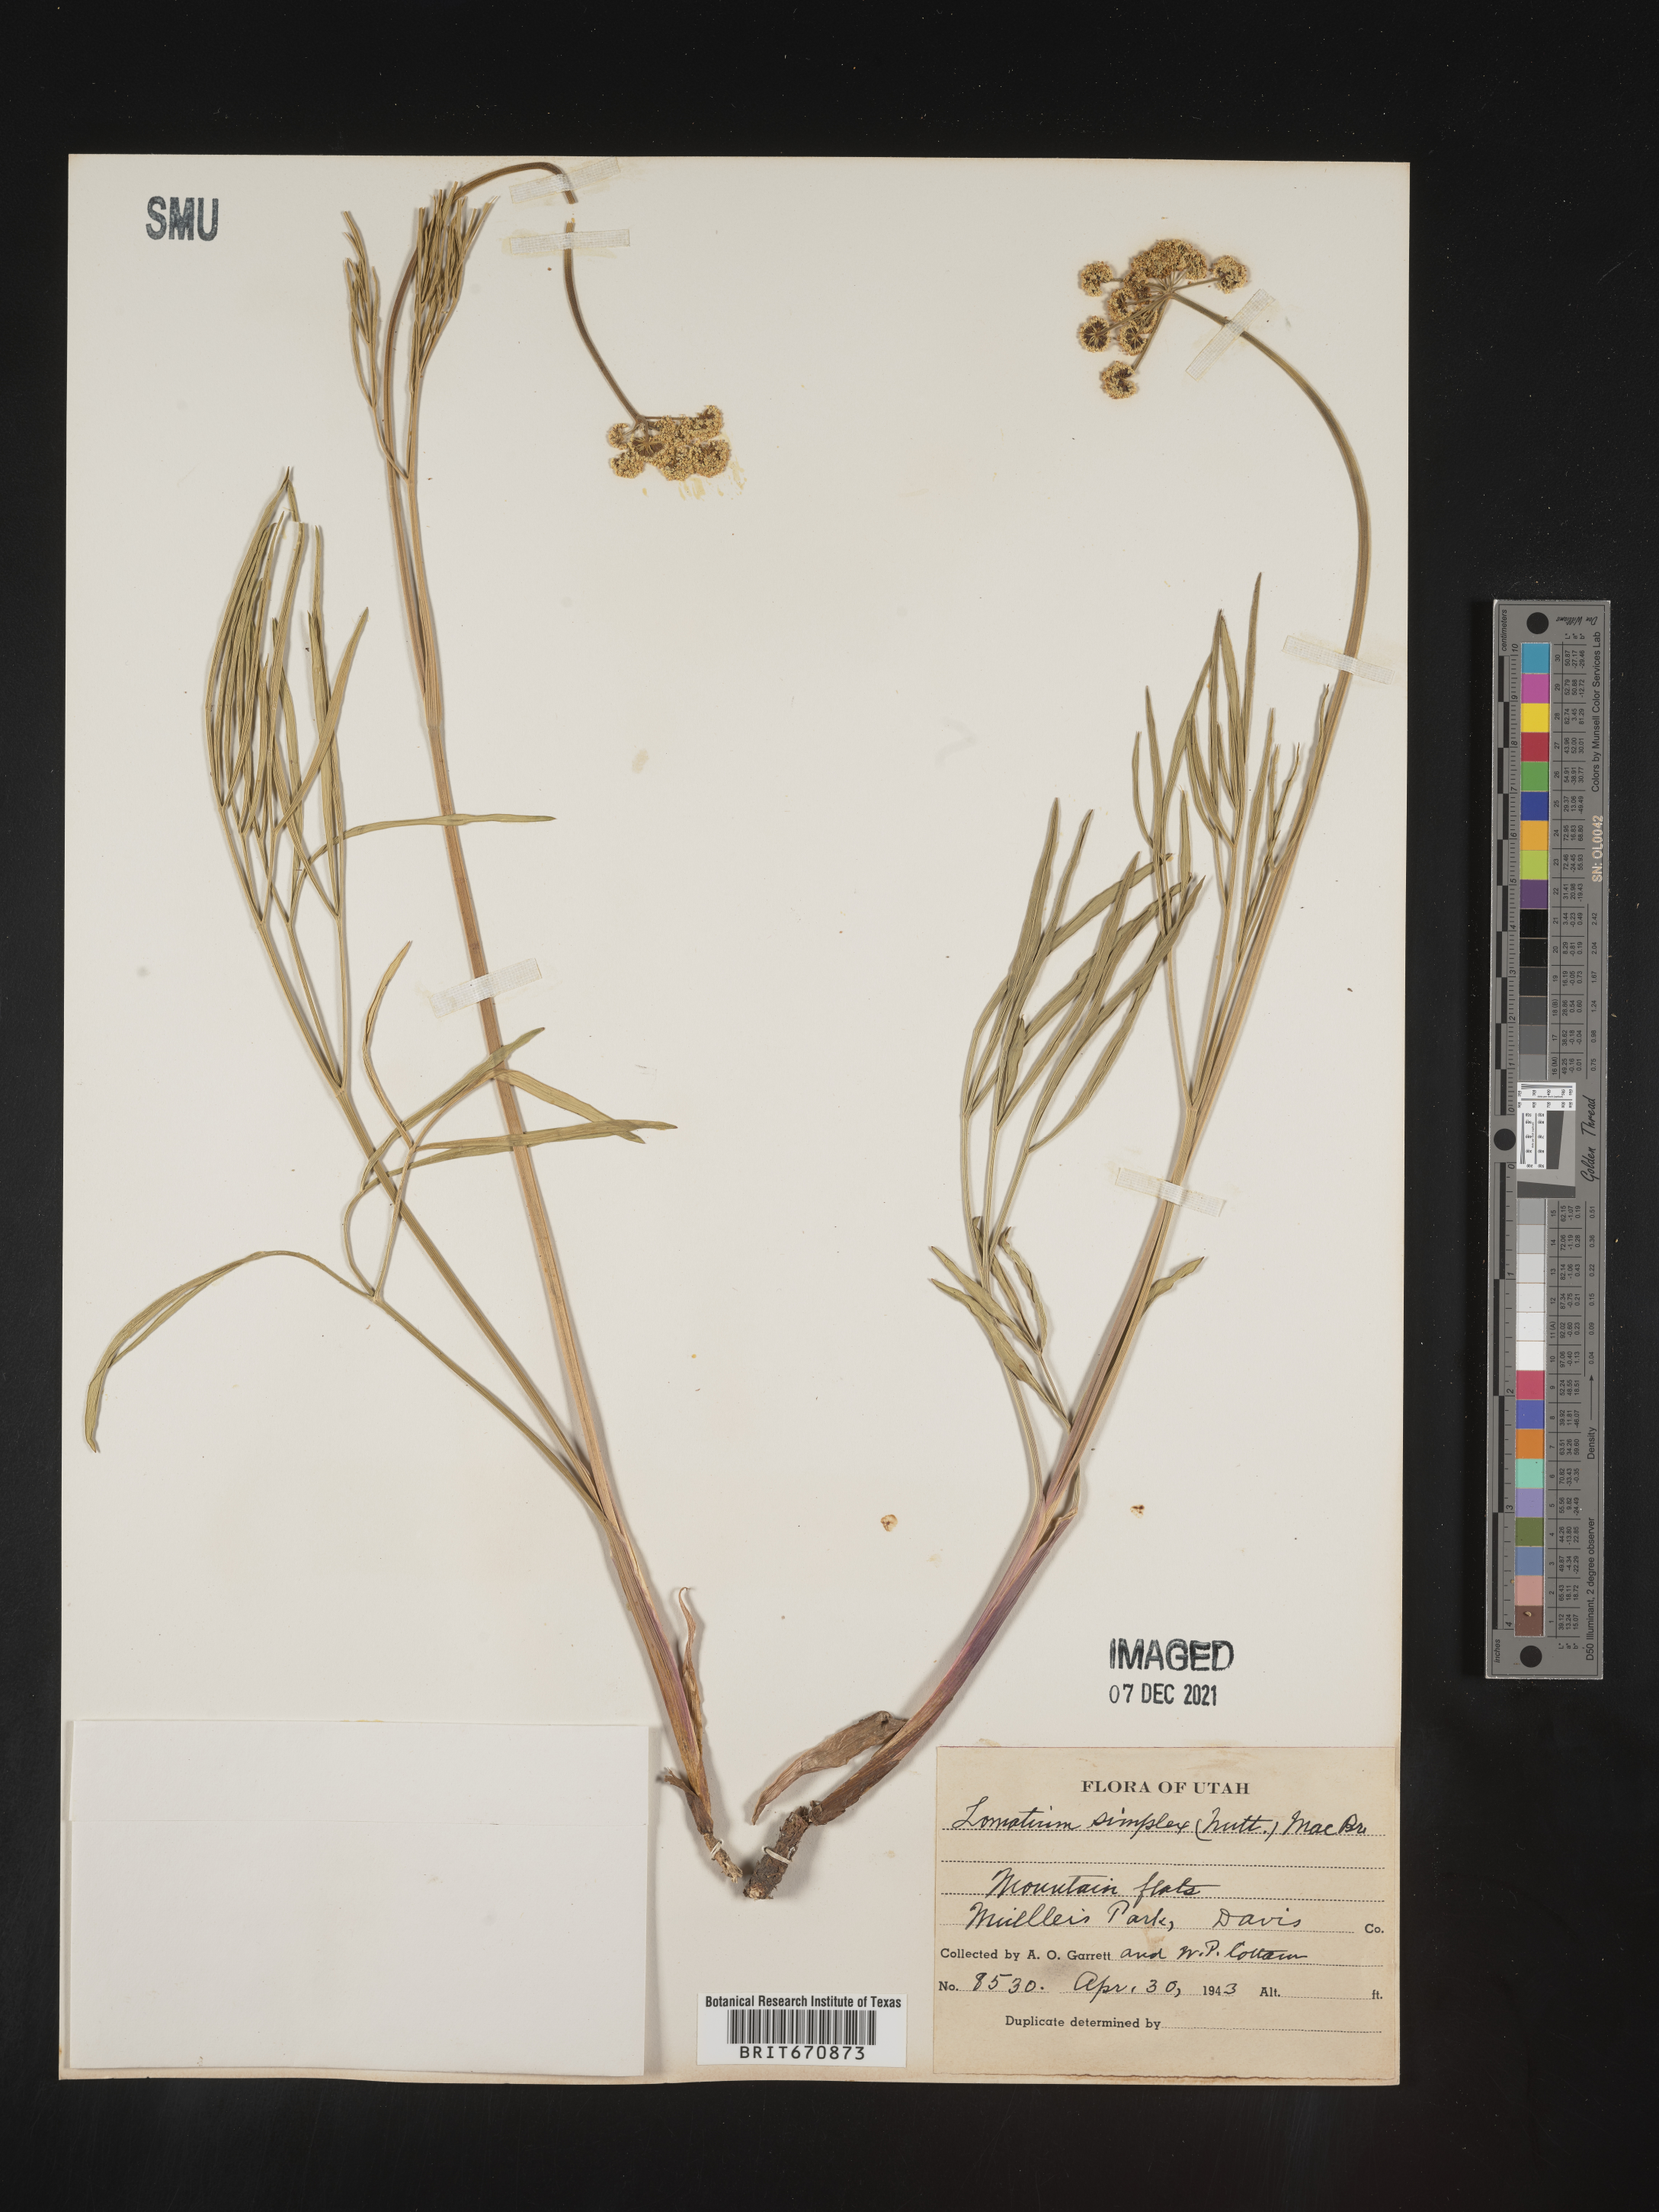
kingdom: Plantae
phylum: Tracheophyta
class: Magnoliopsida
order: Apiales
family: Apiaceae
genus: Lomatium
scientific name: Lomatium simplex
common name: Great basin biscuitroot
